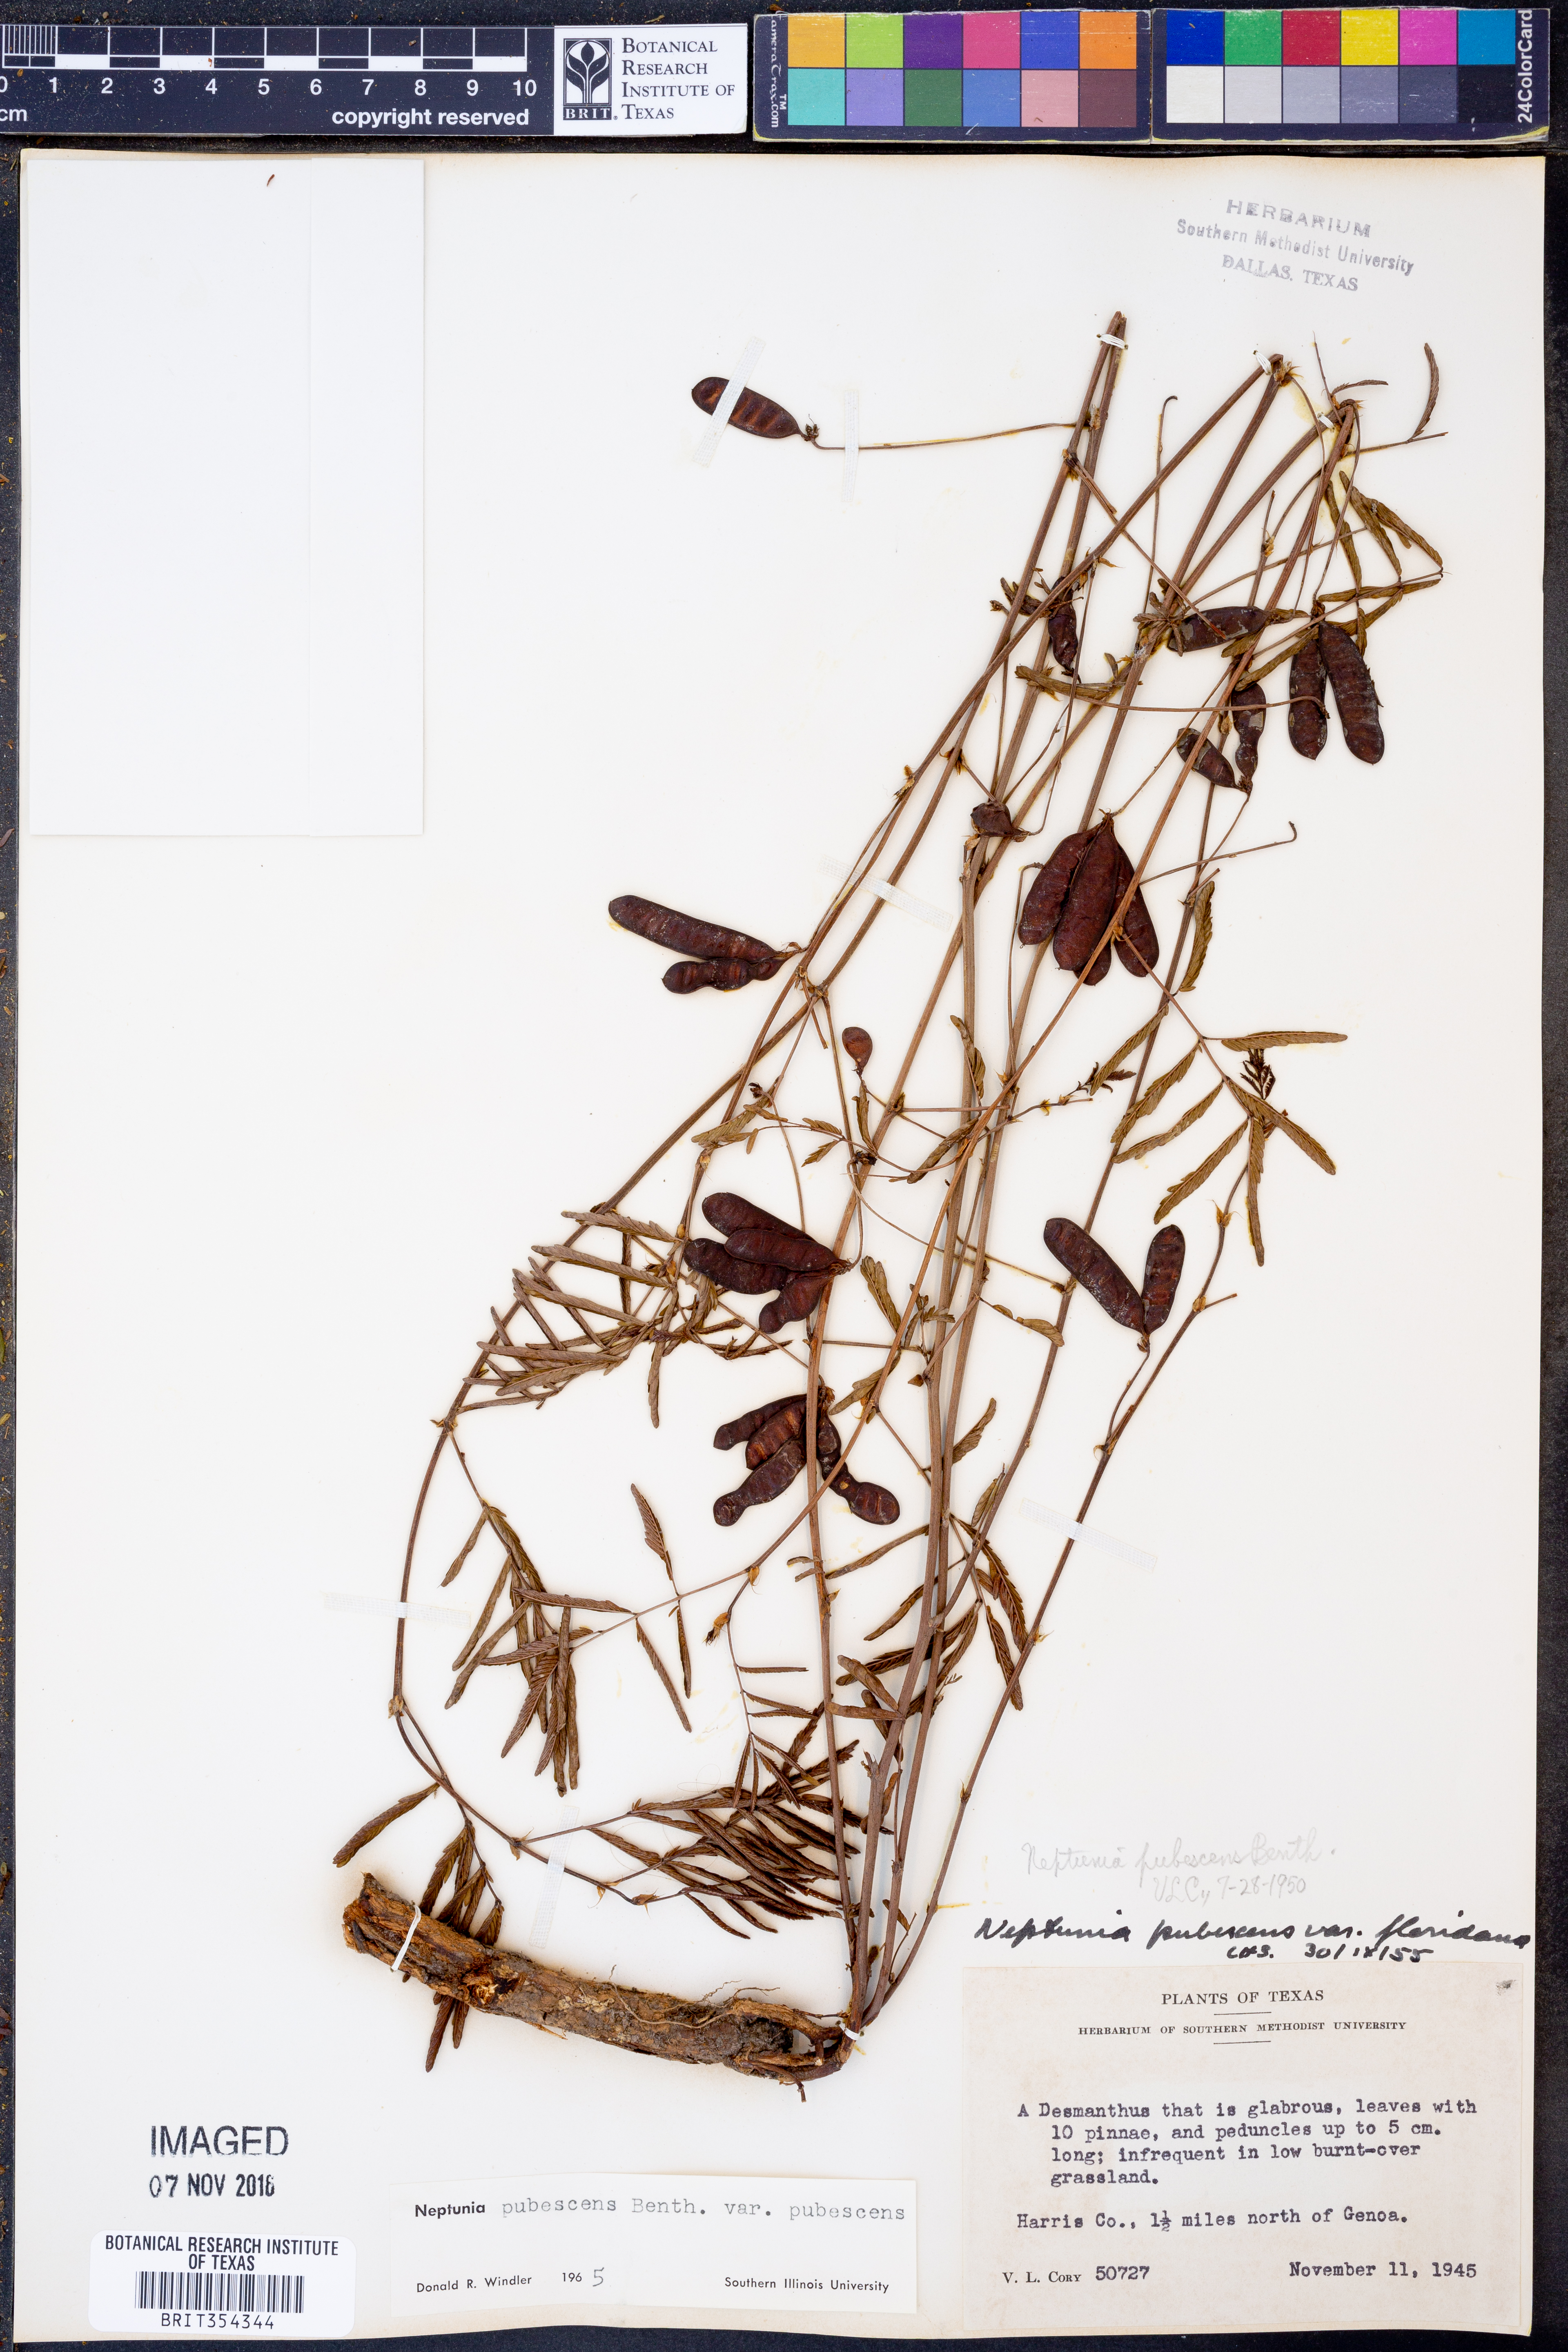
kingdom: Plantae
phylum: Tracheophyta
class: Magnoliopsida
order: Fabales
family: Fabaceae
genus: Neptunia
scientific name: Neptunia pubescens
